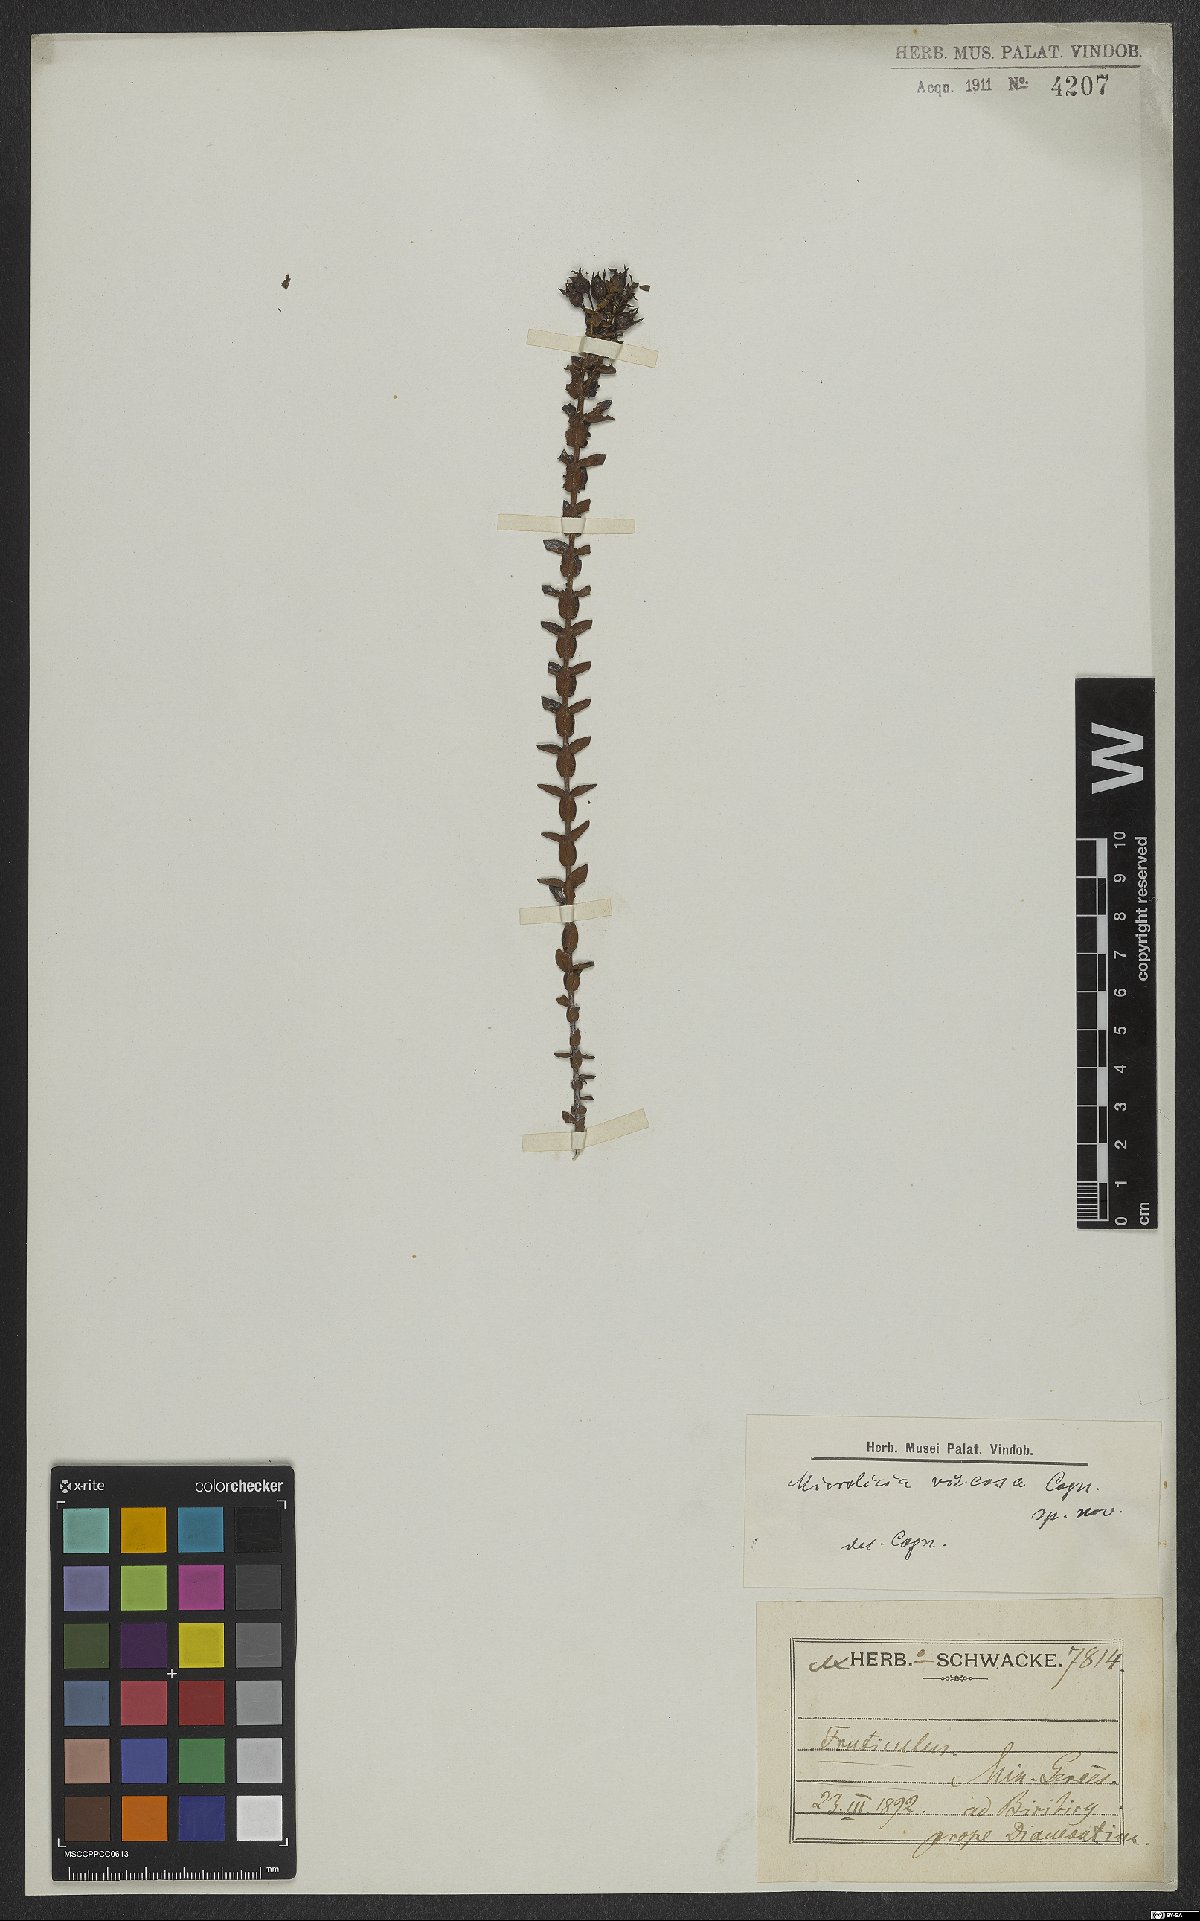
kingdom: Plantae
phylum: Tracheophyta
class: Magnoliopsida
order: Myrtales
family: Melastomataceae
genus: Microlicia
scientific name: Microlicia viscosa
